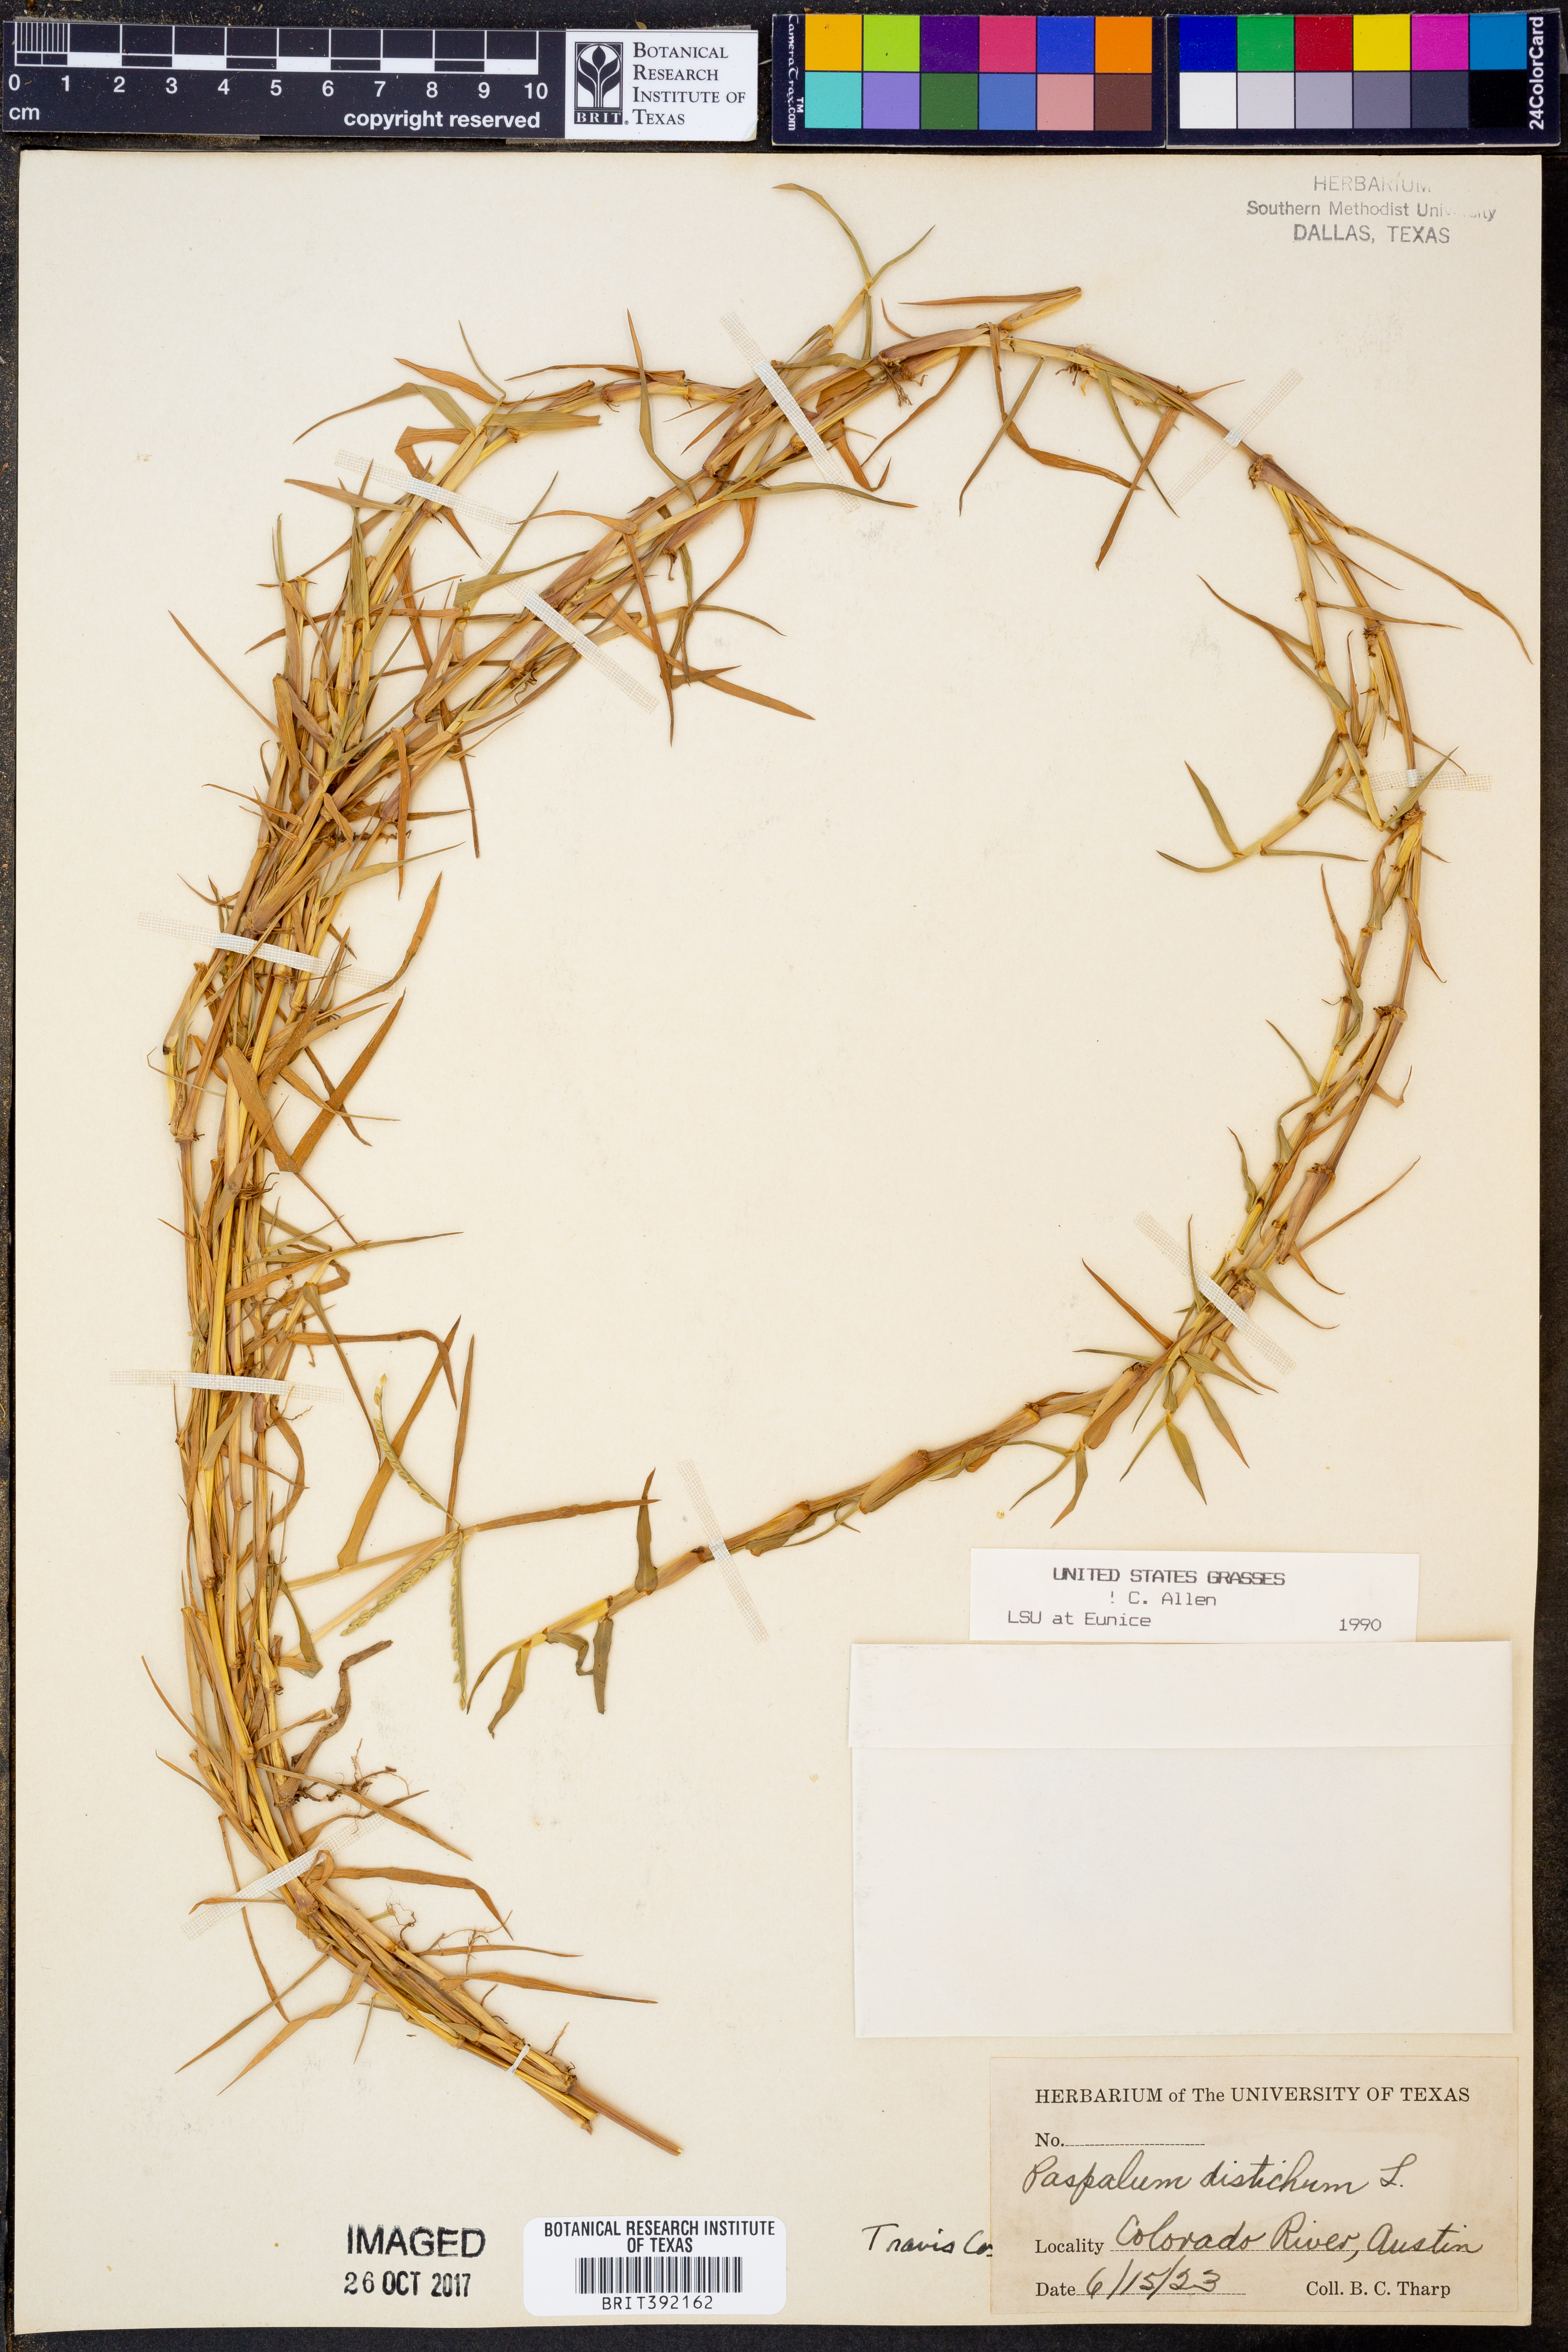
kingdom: Plantae
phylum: Tracheophyta
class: Liliopsida
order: Poales
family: Poaceae
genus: Paspalum
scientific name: Paspalum distichum
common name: Knotgrass
